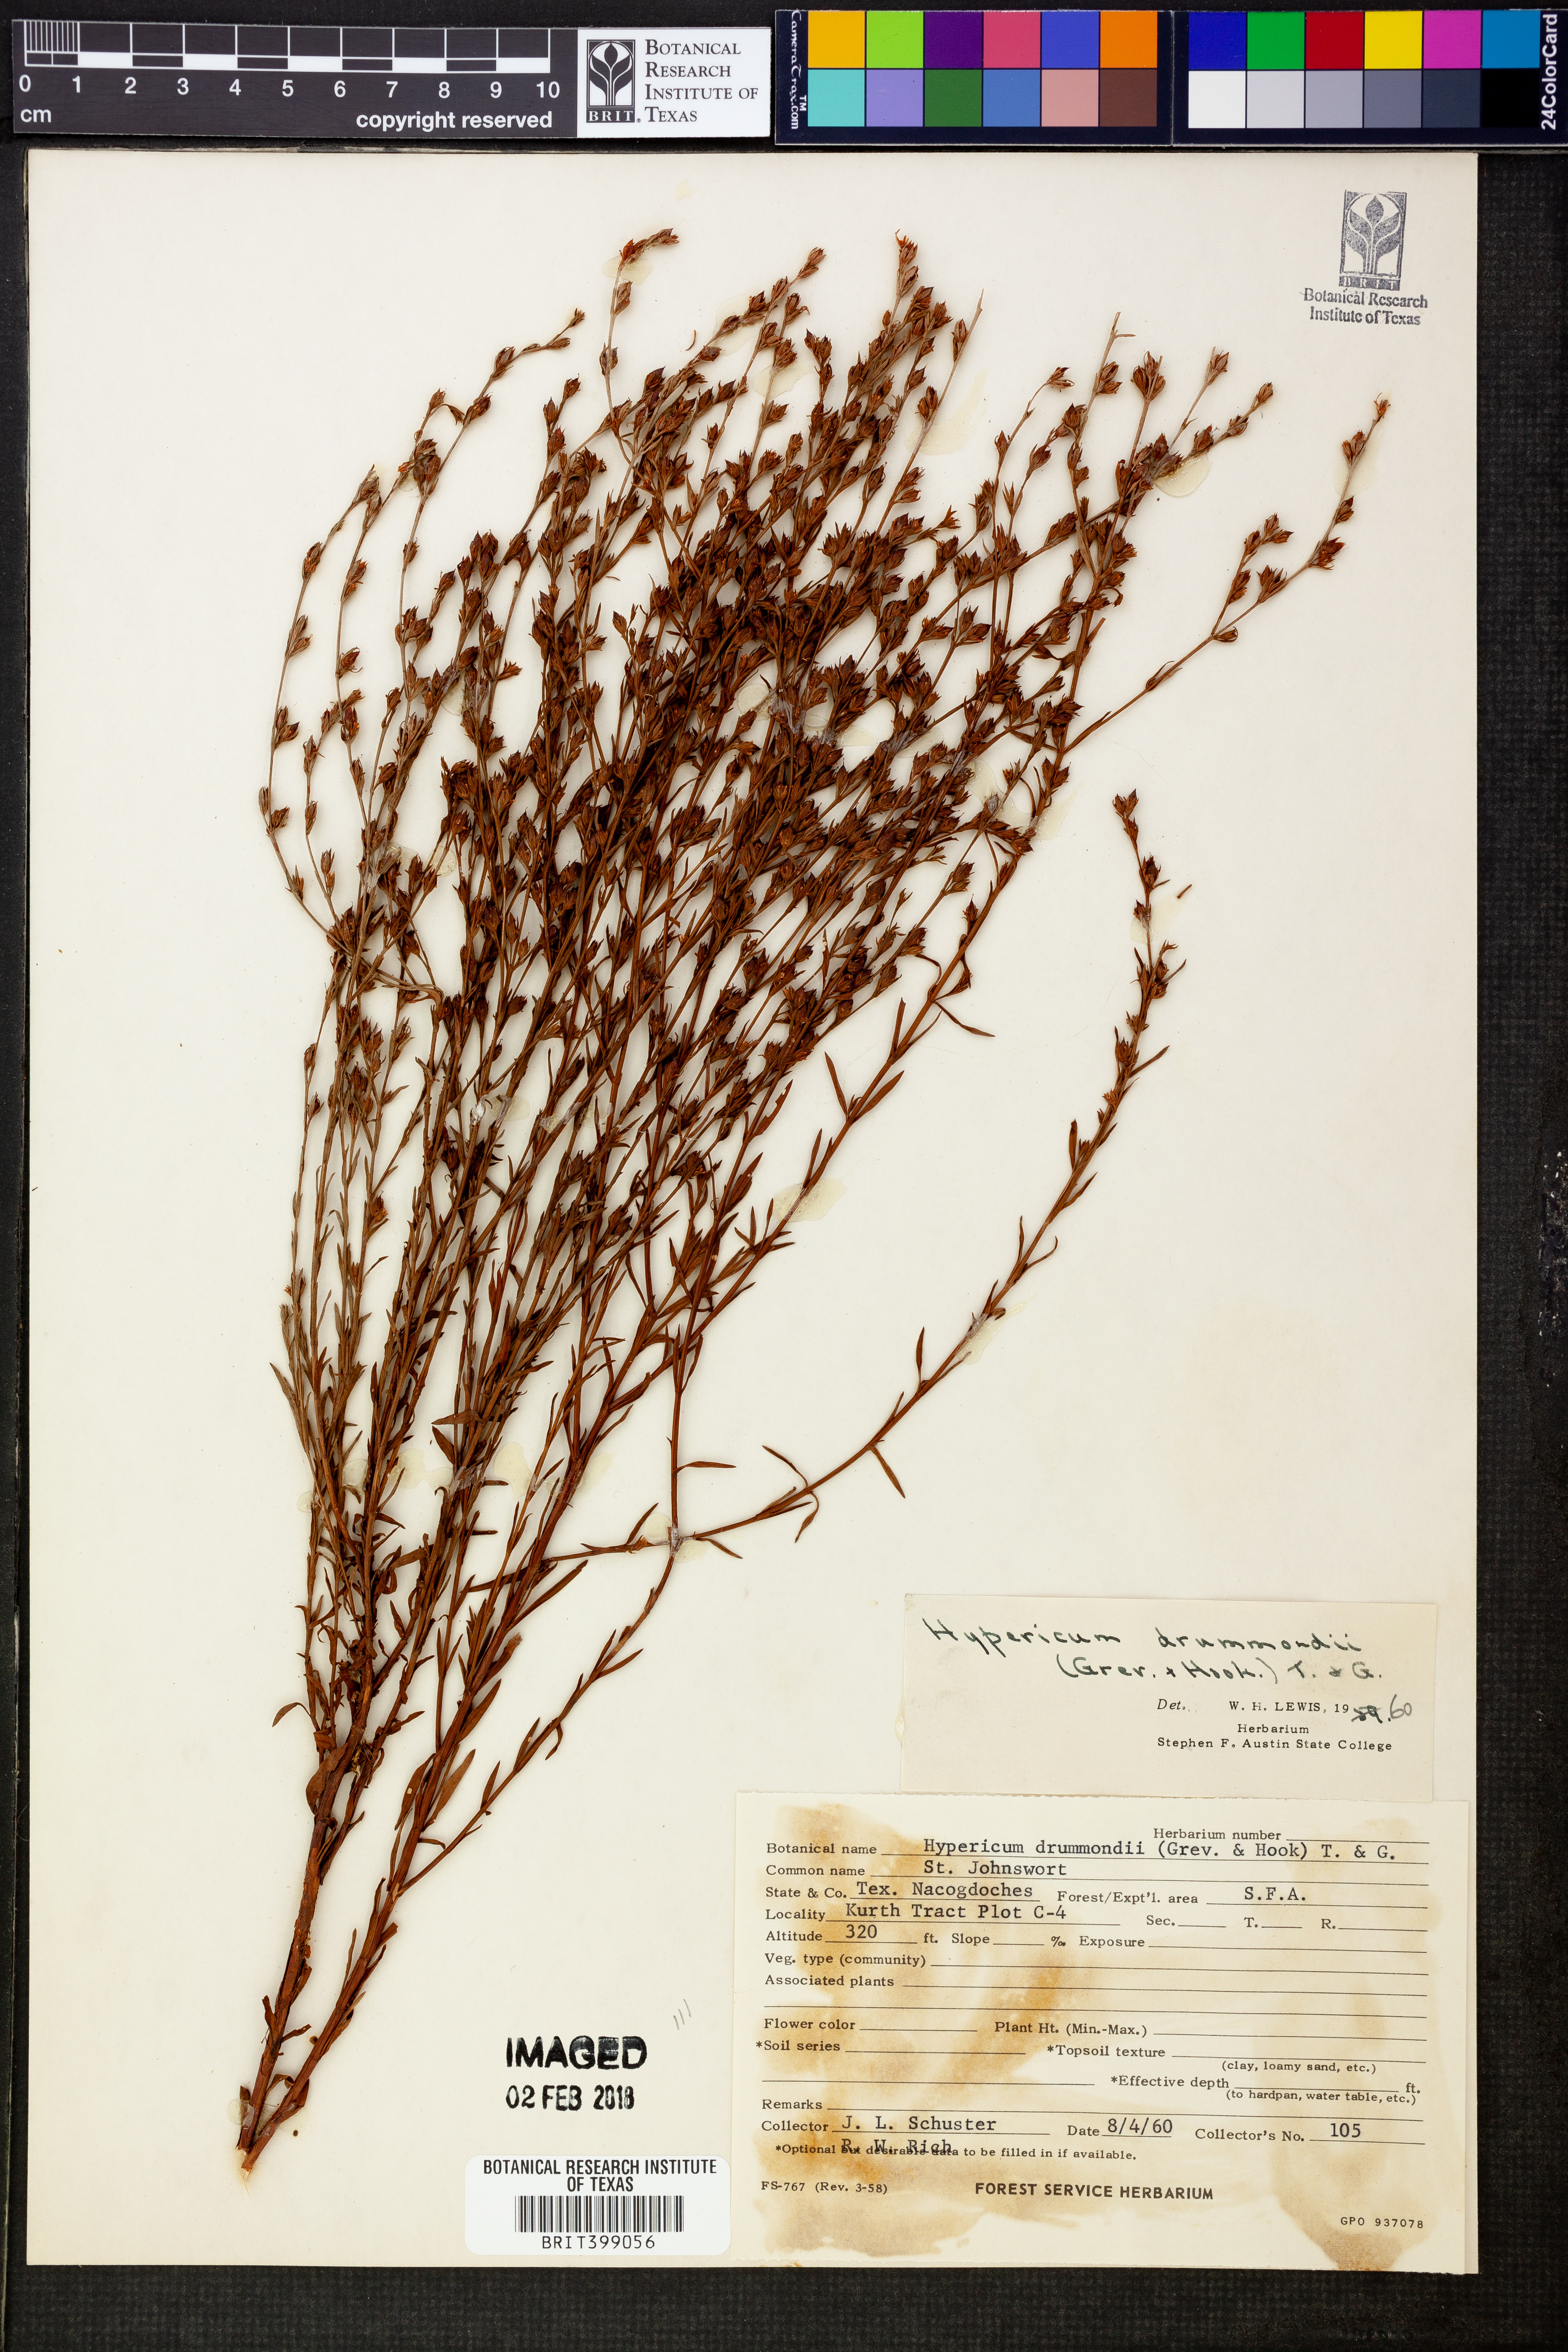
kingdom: Plantae
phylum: Tracheophyta
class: Magnoliopsida
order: Malpighiales
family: Hypericaceae
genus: Hypericum
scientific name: Hypericum drummondii
